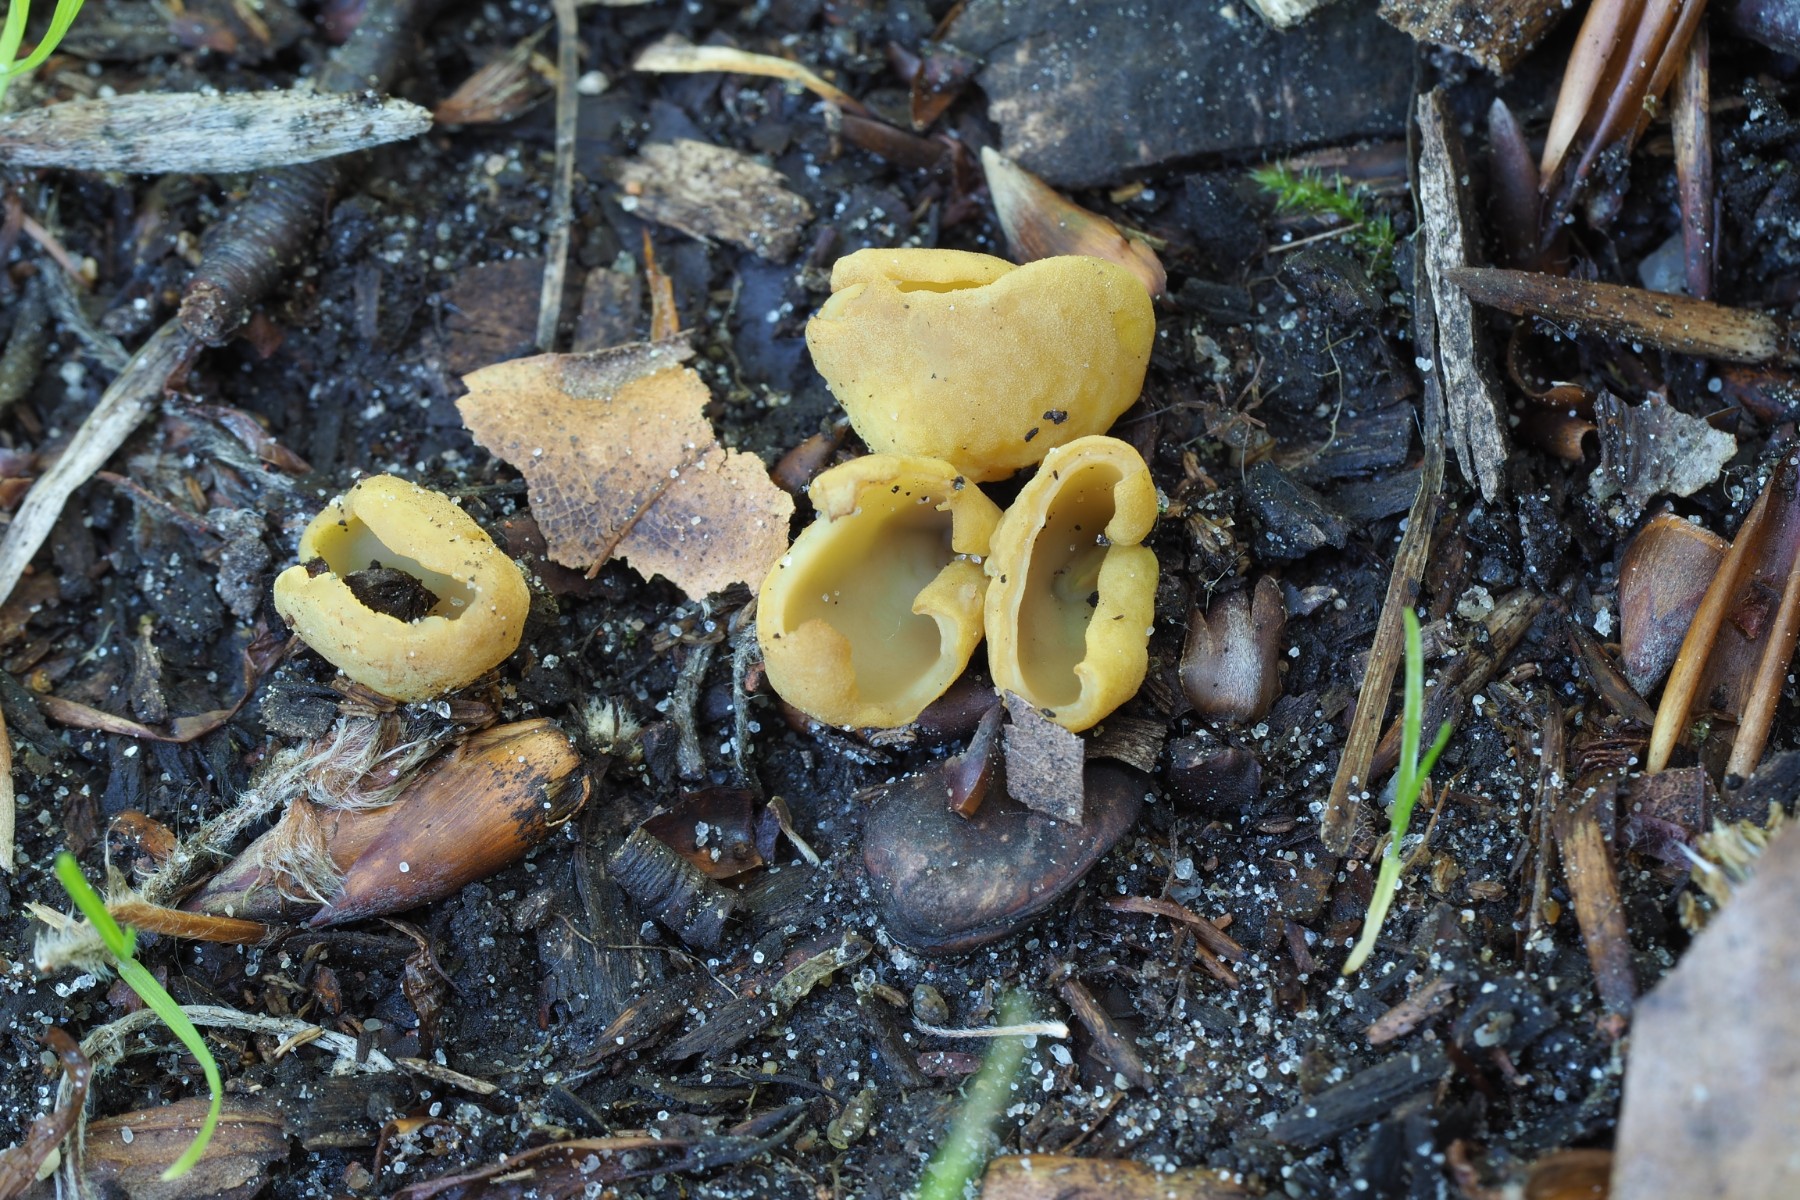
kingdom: Fungi
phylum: Ascomycota
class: Pezizomycetes
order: Pezizales
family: Otideaceae
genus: Otidea
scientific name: Otidea minor
